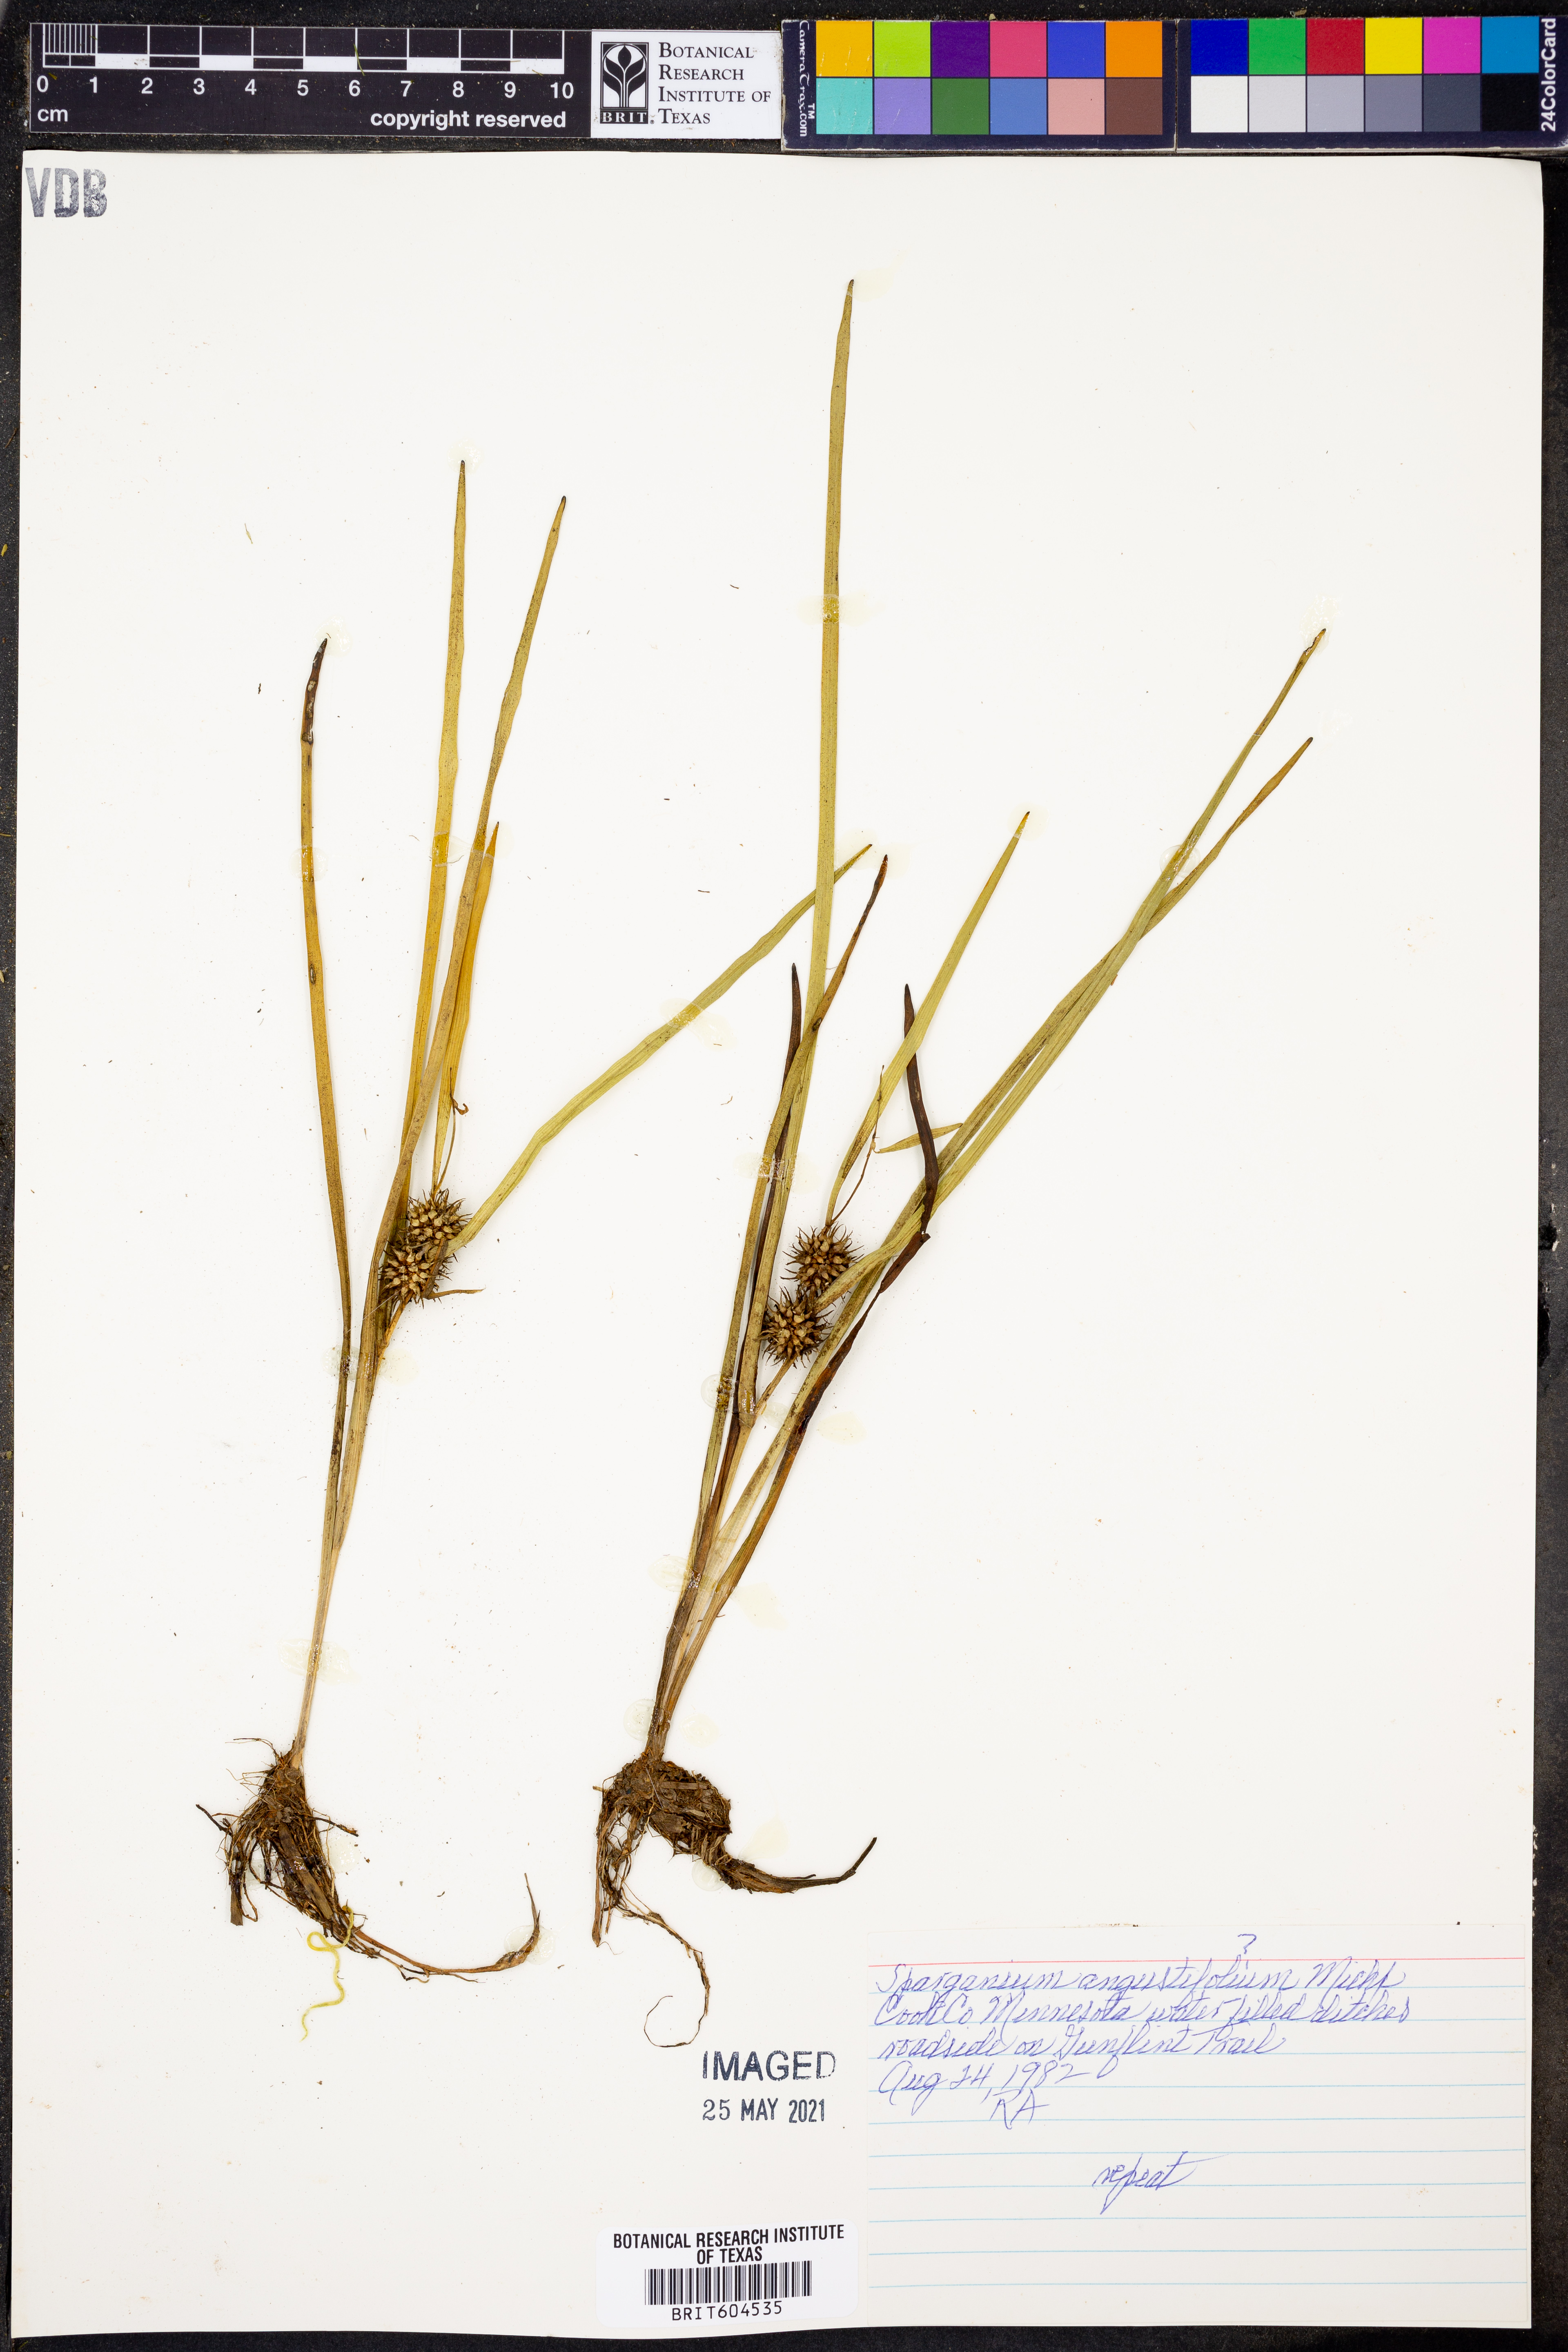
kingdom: Plantae
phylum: Tracheophyta
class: Liliopsida
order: Poales
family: Typhaceae
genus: Sparganium
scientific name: Sparganium angustifolium
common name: Floating bur-reed
